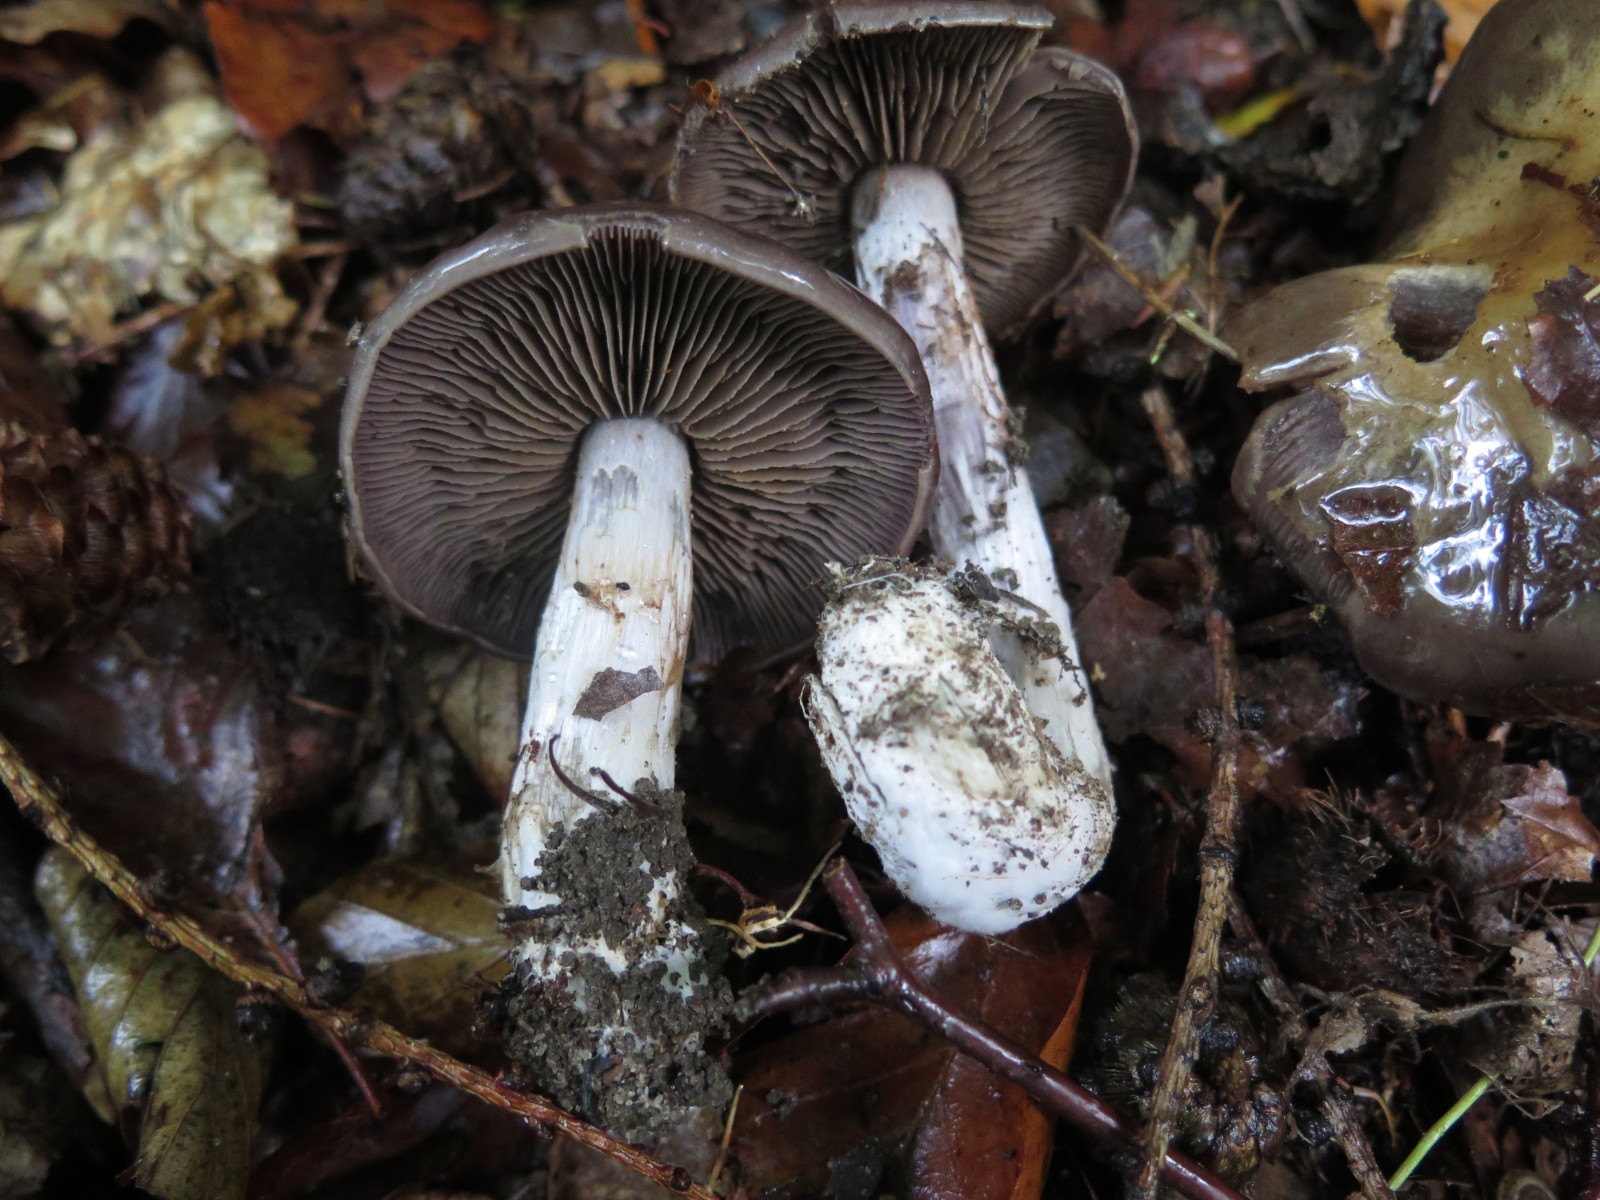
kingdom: Fungi
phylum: Basidiomycota
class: Agaricomycetes
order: Agaricales
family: Cortinariaceae
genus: Cortinarius
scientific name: Cortinarius
